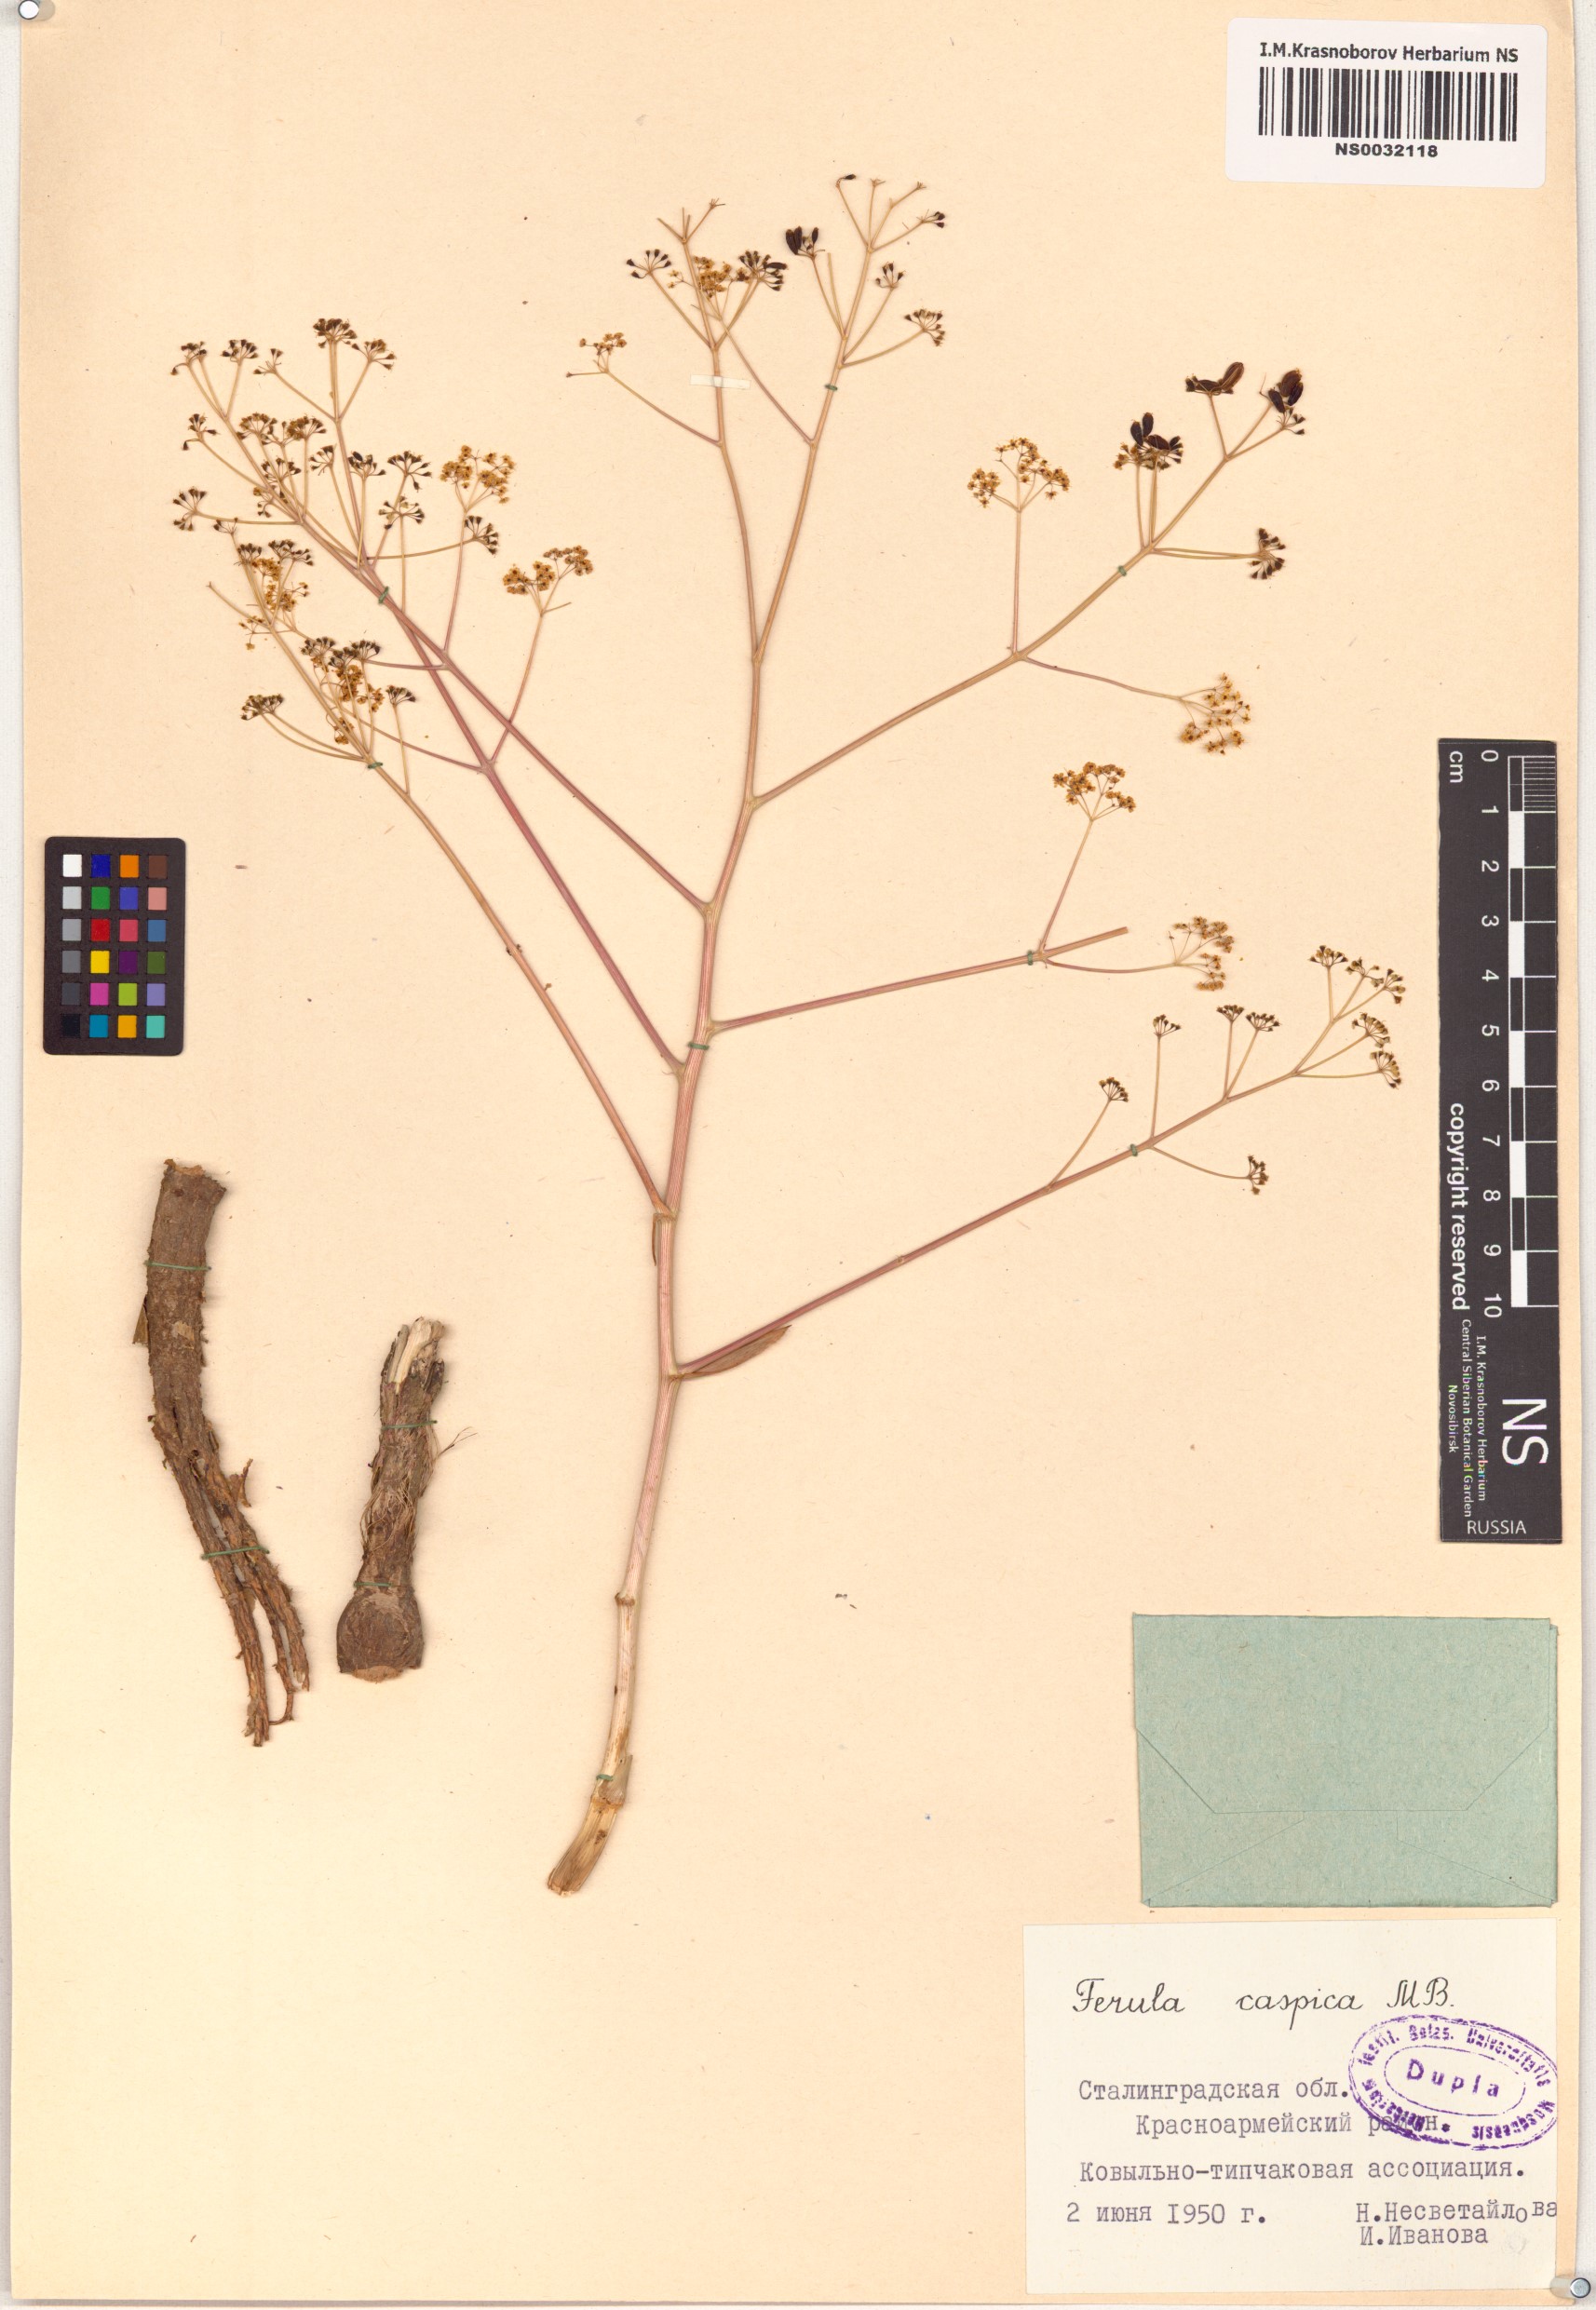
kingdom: Plantae
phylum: Tracheophyta
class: Magnoliopsida
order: Apiales
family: Apiaceae
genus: Ferula
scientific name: Ferula caspica
